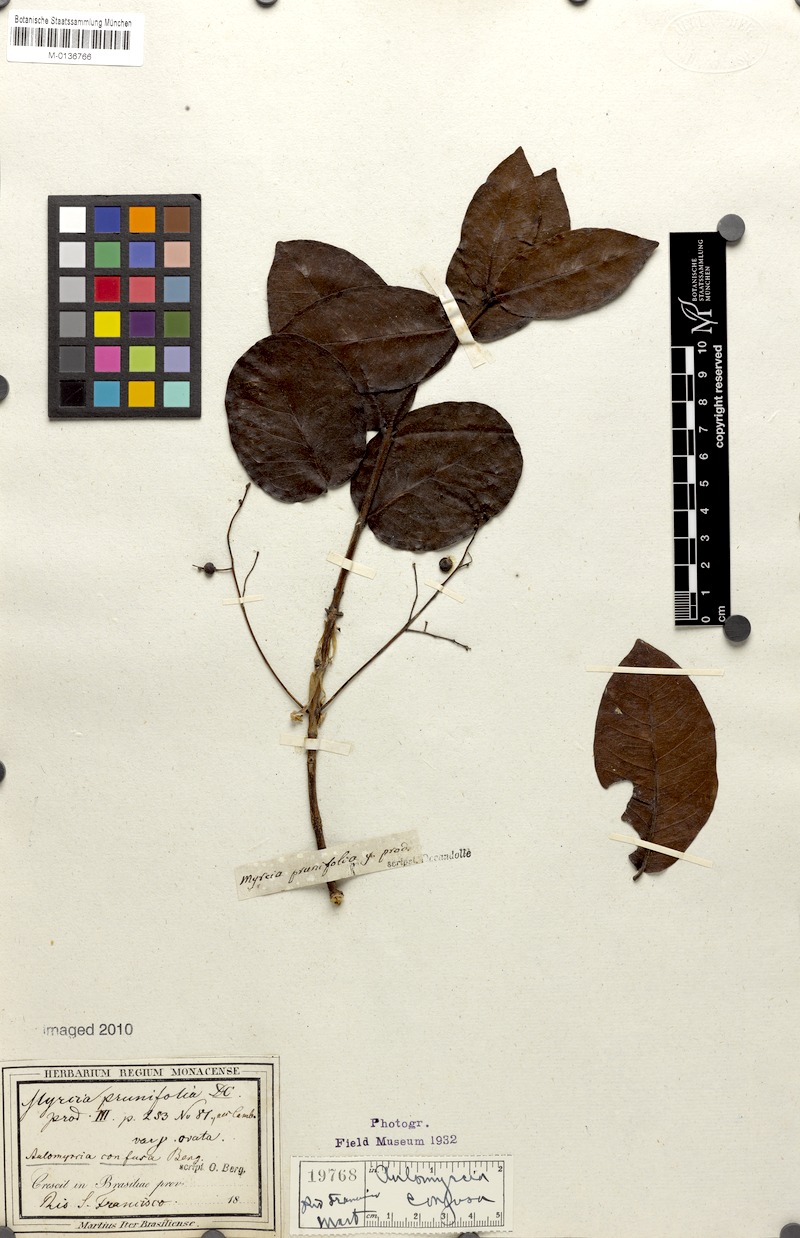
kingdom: Plantae
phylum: Tracheophyta
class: Magnoliopsida
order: Myrtales
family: Myrtaceae
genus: Myrcia
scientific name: Myrcia tomentosa
